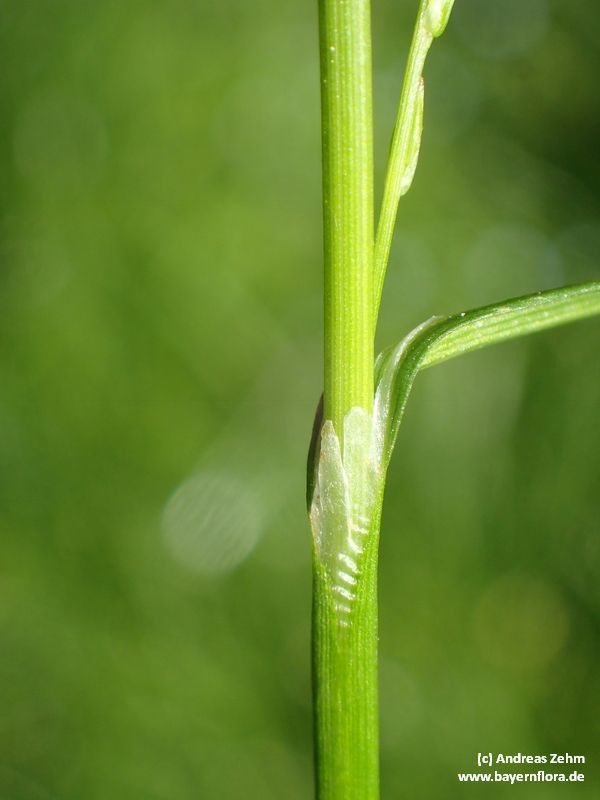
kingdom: Plantae
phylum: Tracheophyta
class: Liliopsida
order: Poales
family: Cyperaceae
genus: Carex
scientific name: Carex strigosa
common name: Thin-spiked wood-sedge
